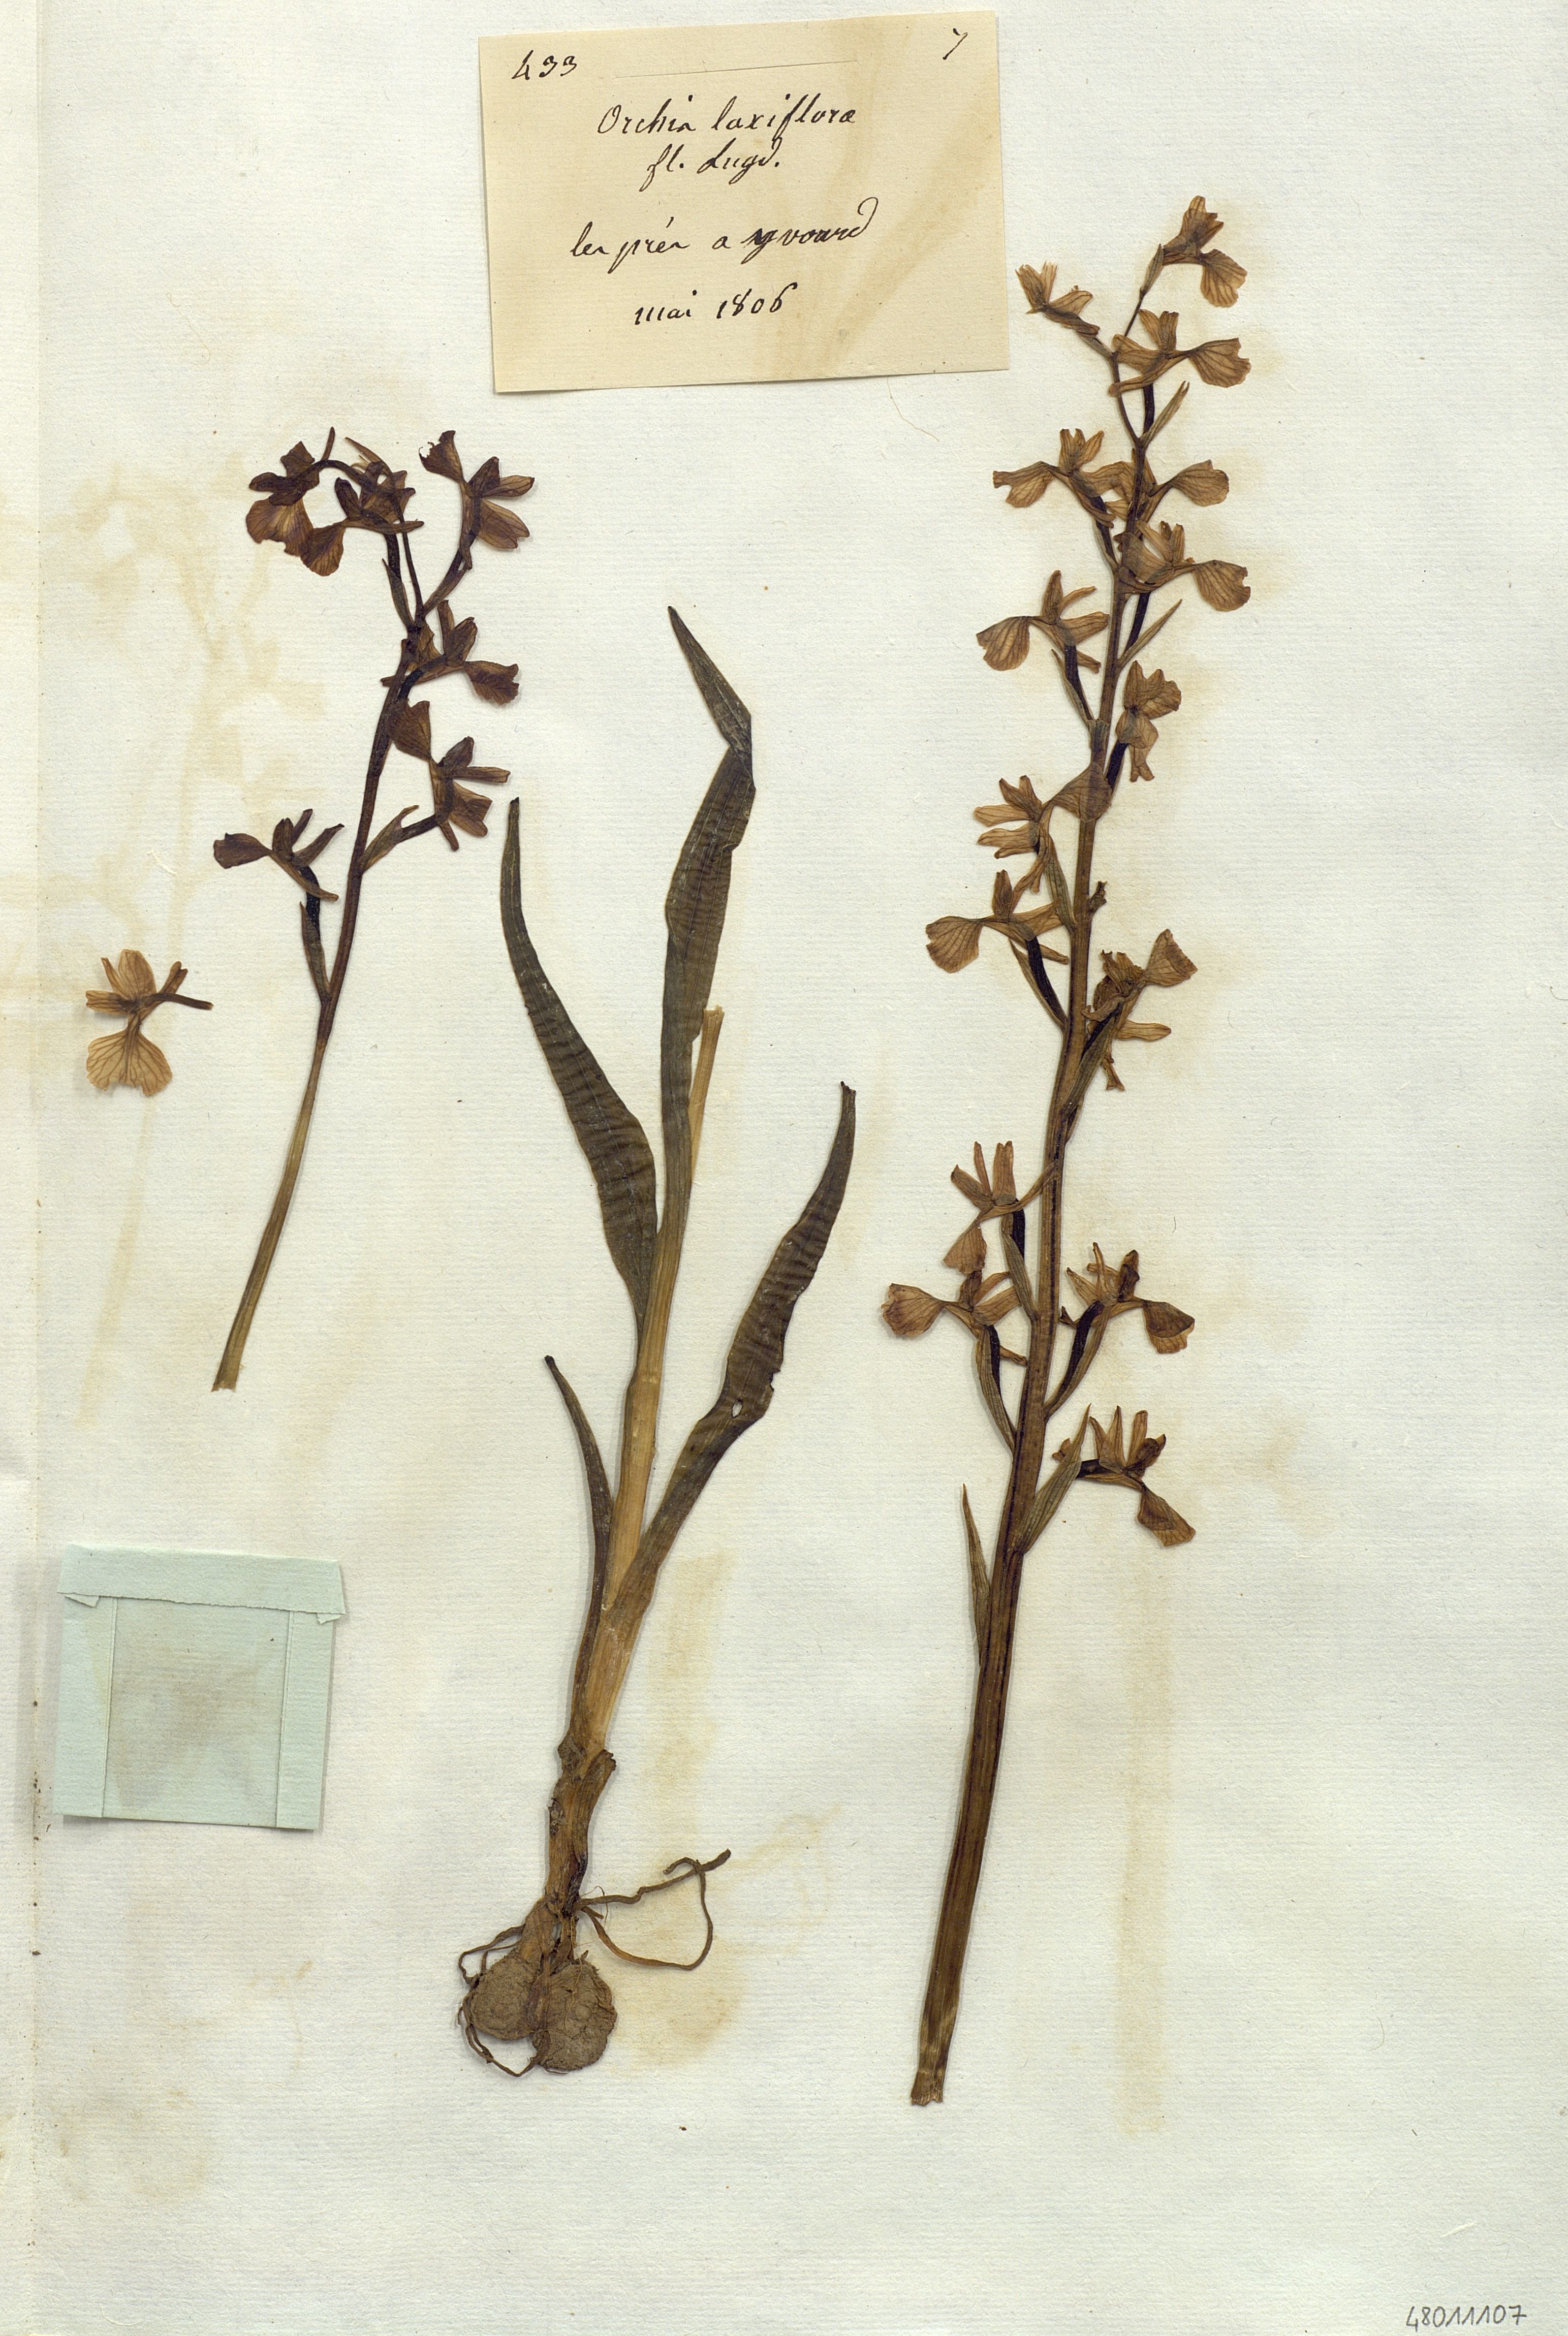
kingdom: Plantae
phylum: Tracheophyta
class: Liliopsida
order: Asparagales
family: Orchidaceae
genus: Anacamptis
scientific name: Anacamptis
